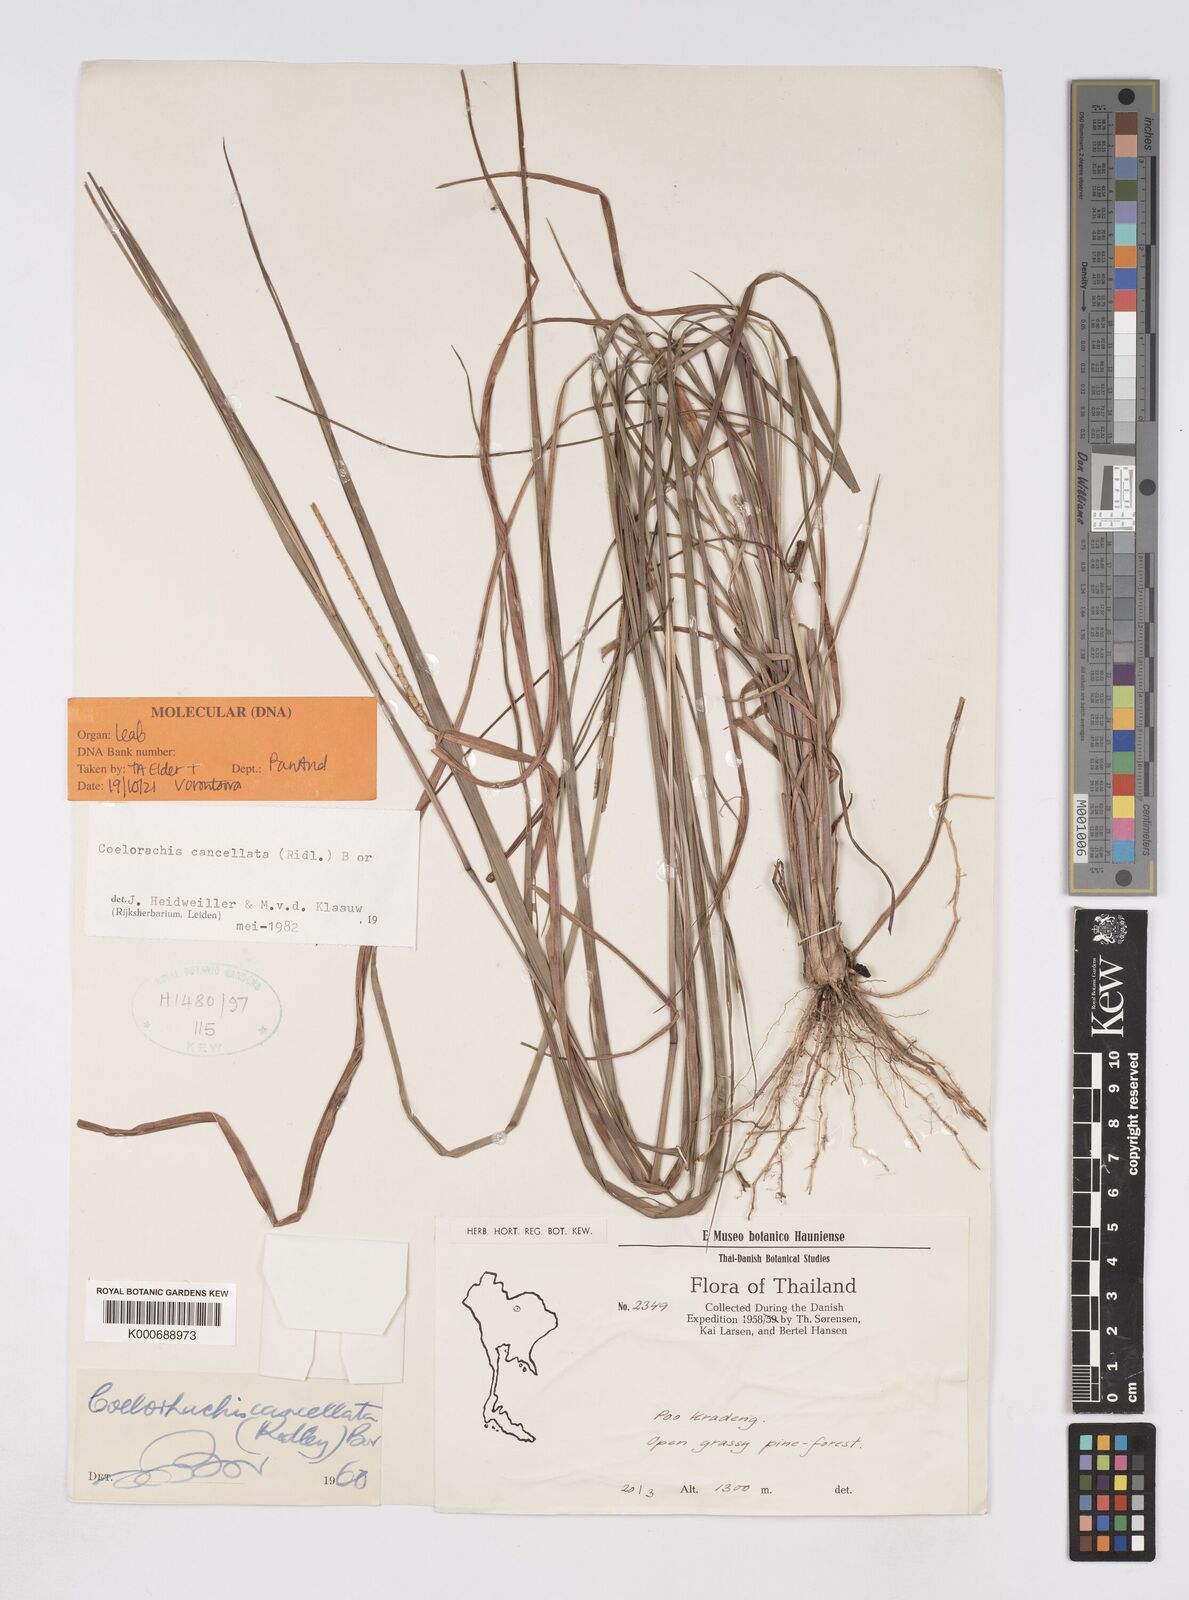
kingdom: Plantae
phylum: Tracheophyta
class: Liliopsida
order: Poales
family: Poaceae
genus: Rottboellia
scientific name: Rottboellia cancellata
